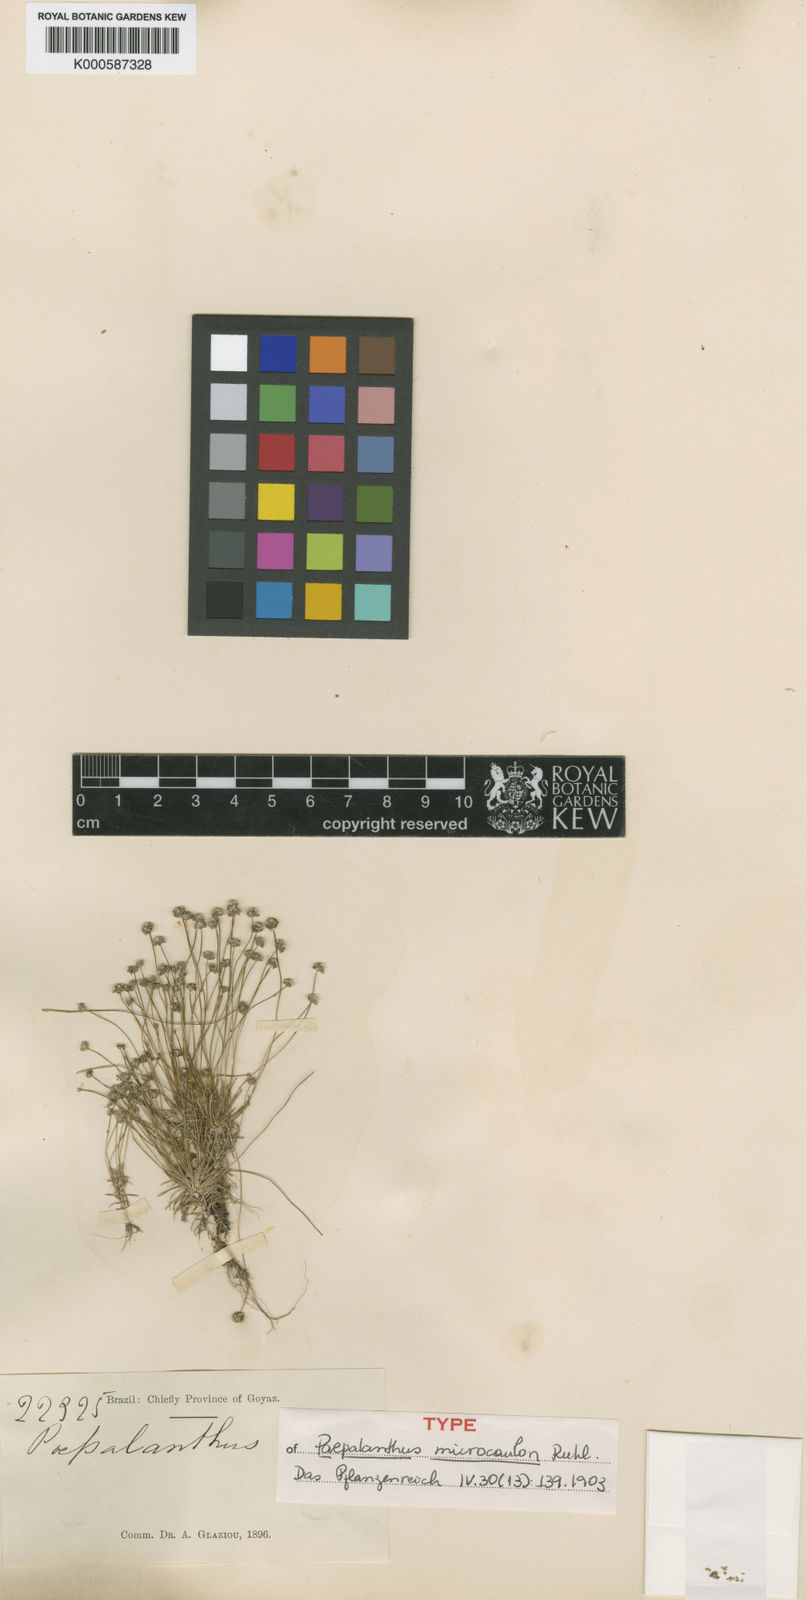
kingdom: Plantae
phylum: Tracheophyta
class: Liliopsida
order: Poales
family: Eriocaulaceae
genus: Paepalanthus
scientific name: Paepalanthus microcaulon
